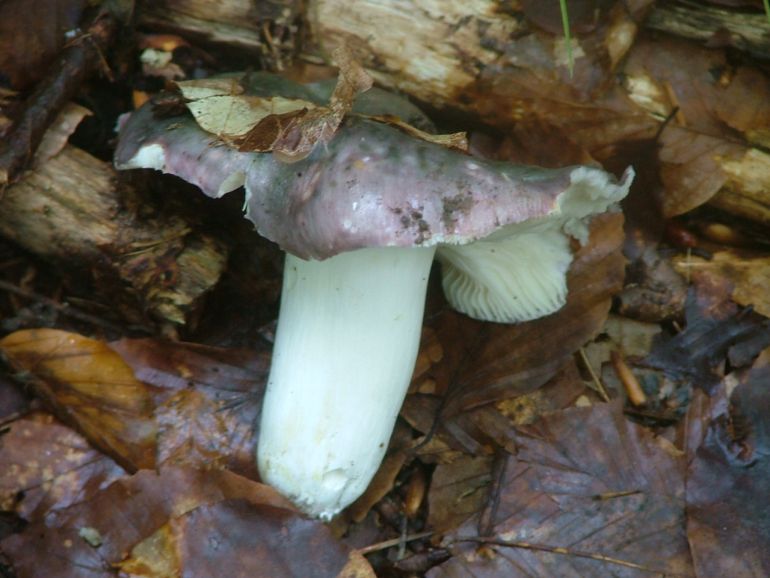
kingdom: Fungi
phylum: Basidiomycota
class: Agaricomycetes
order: Russulales
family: Russulaceae
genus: Russula
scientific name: Russula cyanoxantha
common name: broget skørhat
